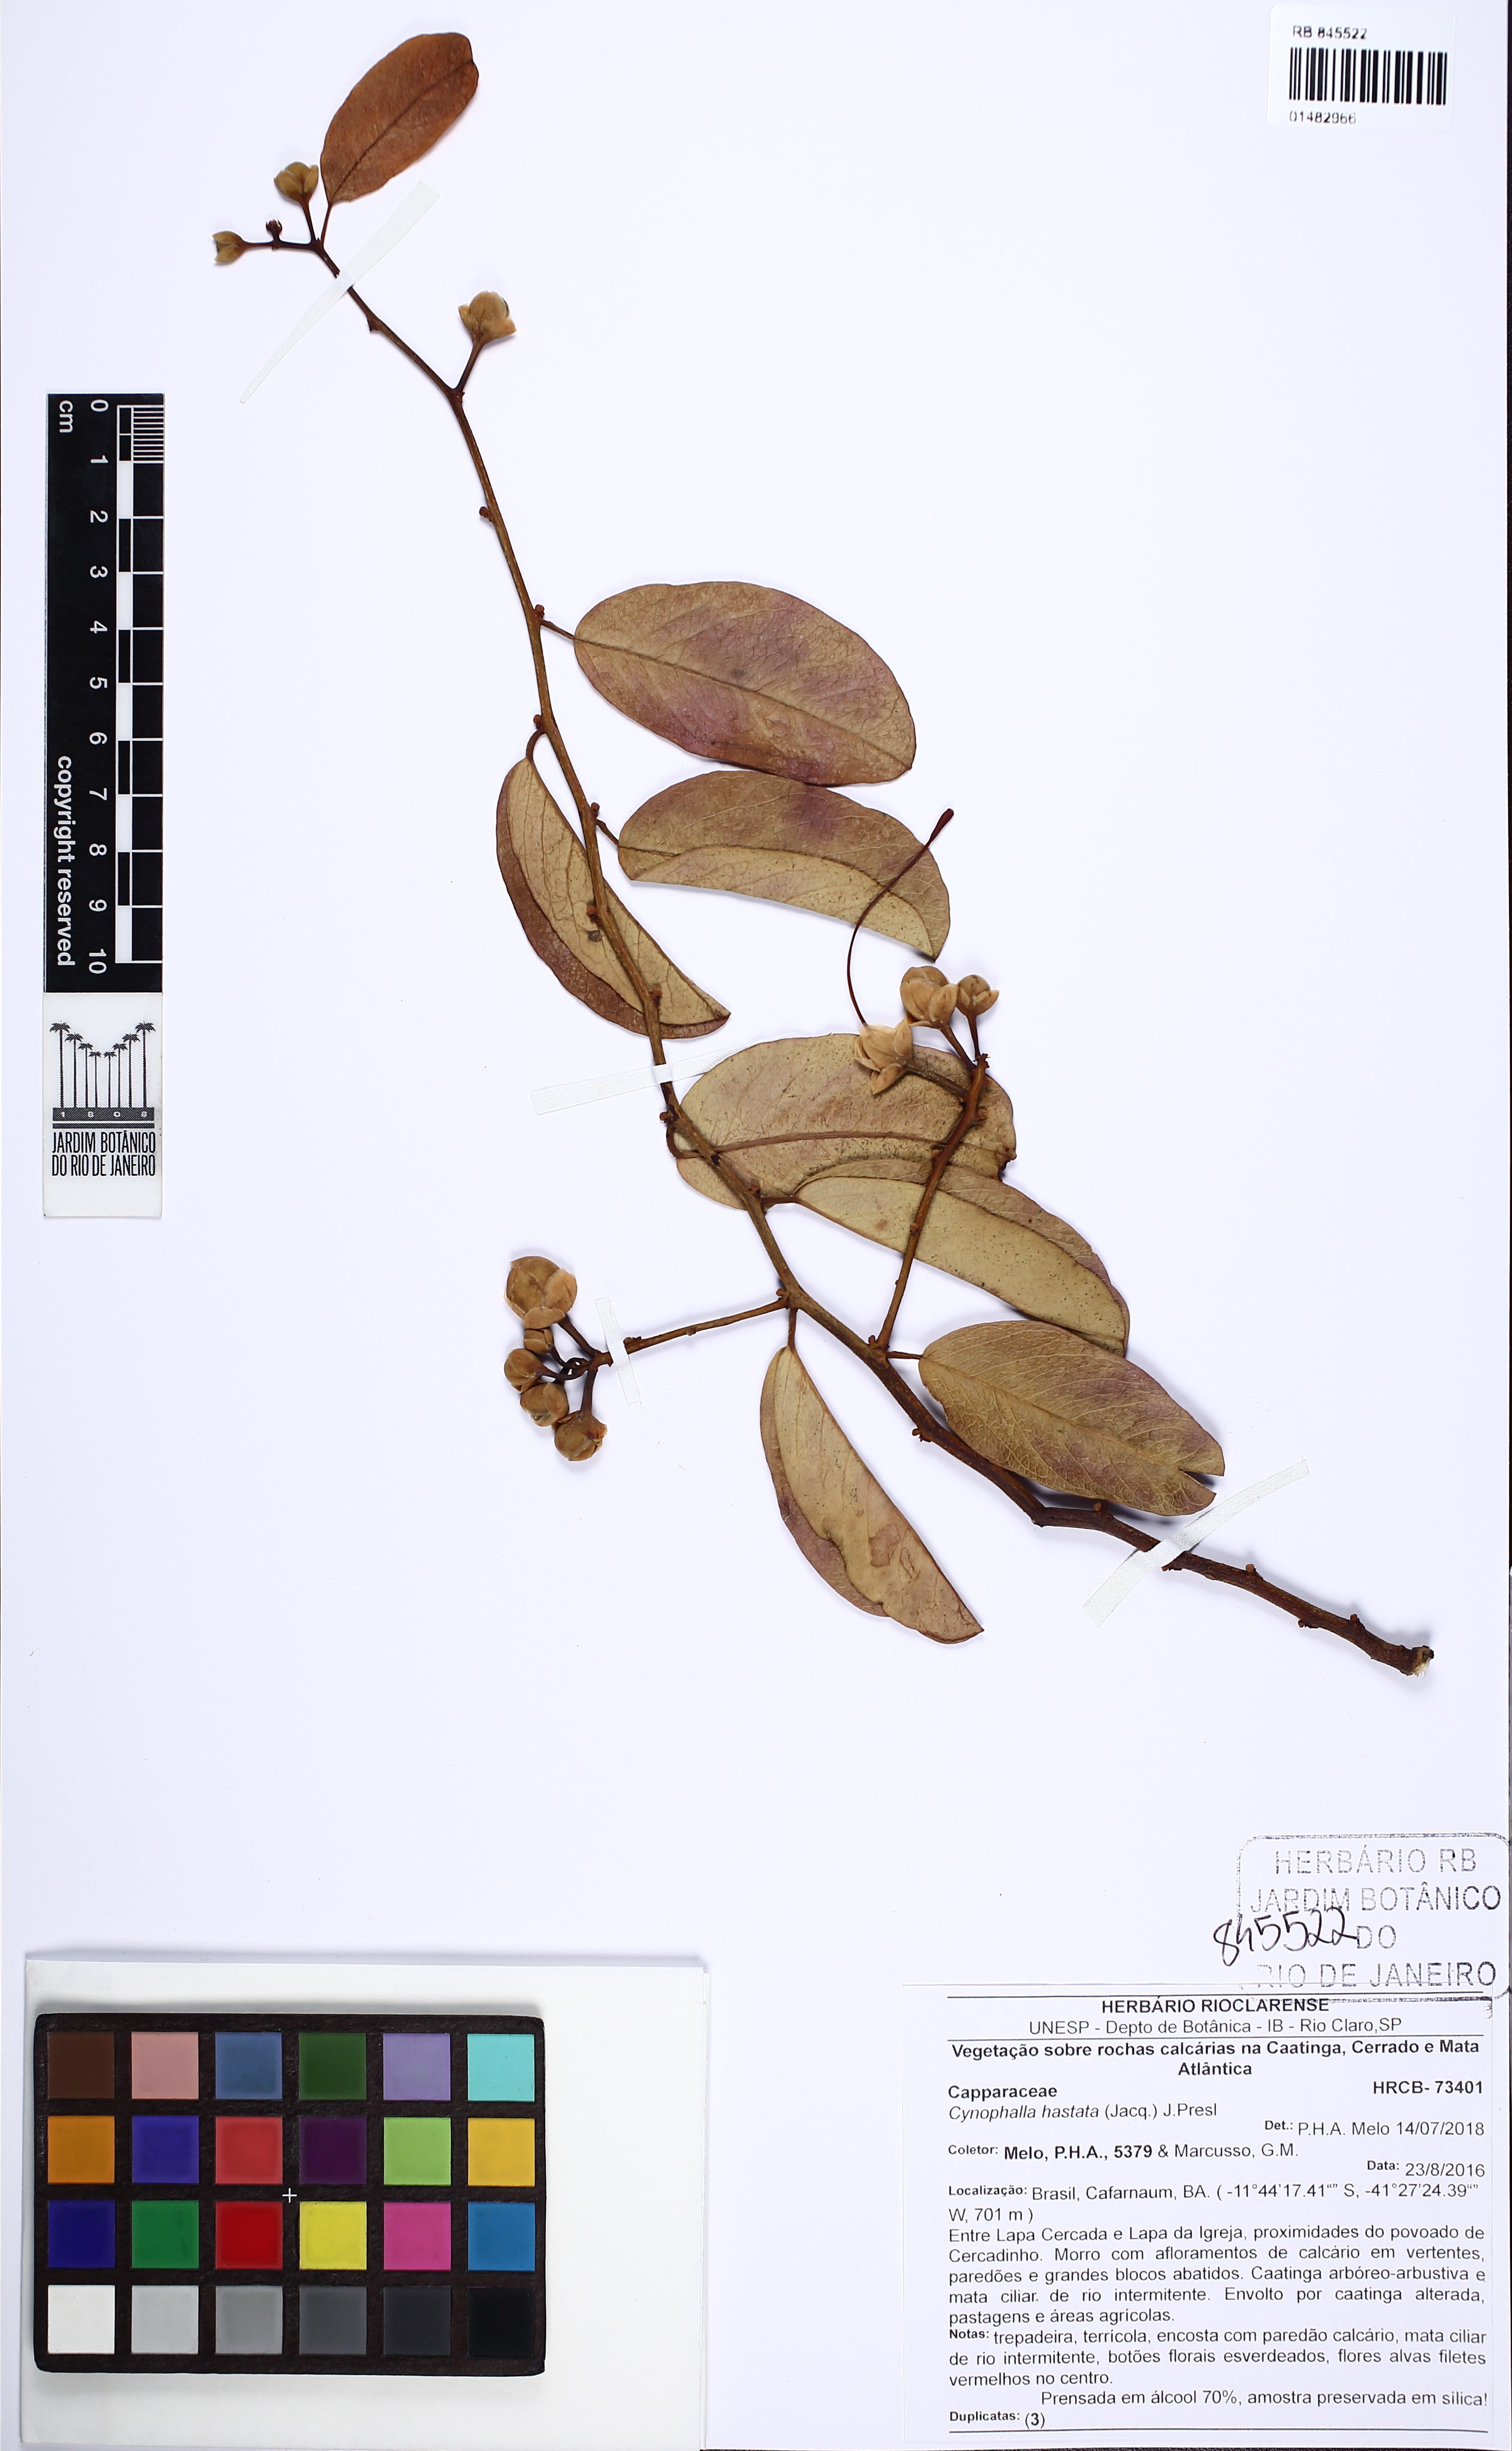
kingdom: Plantae
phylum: Tracheophyta
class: Magnoliopsida
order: Brassicales
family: Capparaceae
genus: Cynophalla
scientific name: Cynophalla hastata
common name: Broadleaf cape
